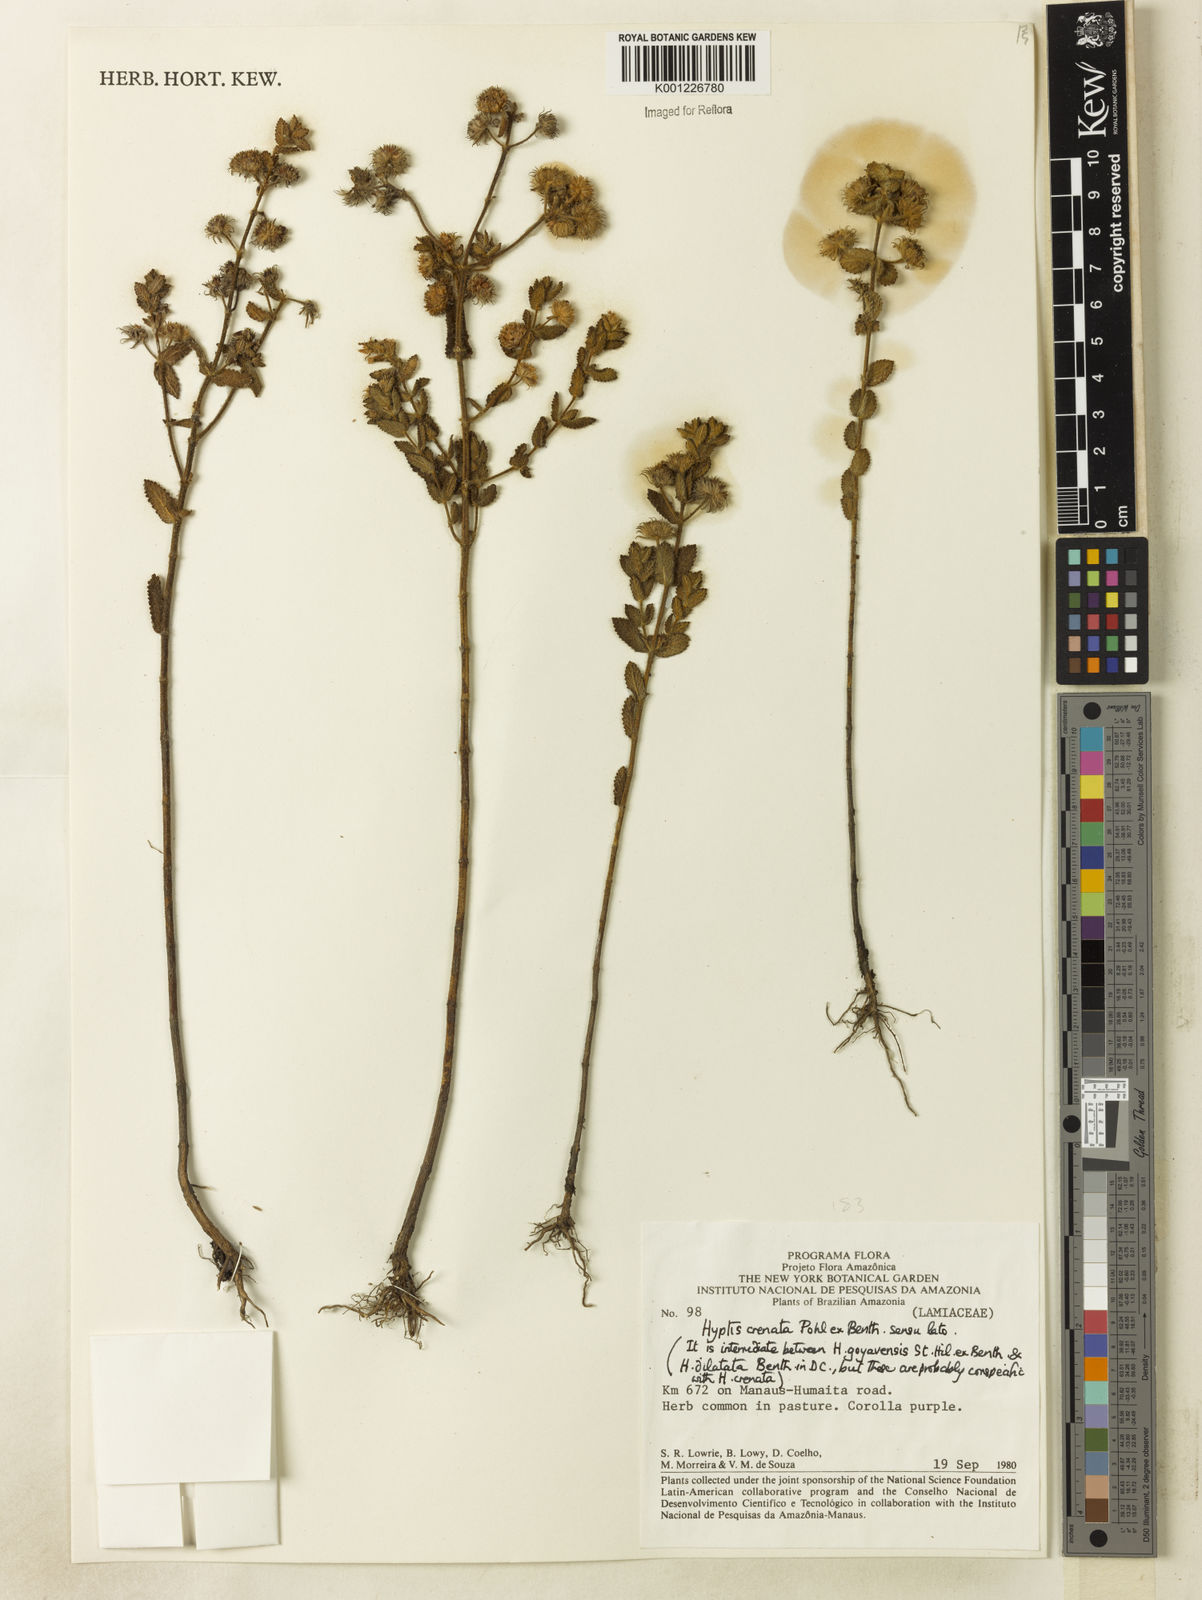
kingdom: Plantae
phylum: Tracheophyta
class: Magnoliopsida
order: Lamiales
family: Lamiaceae
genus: Hyptis
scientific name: Hyptis crenata
